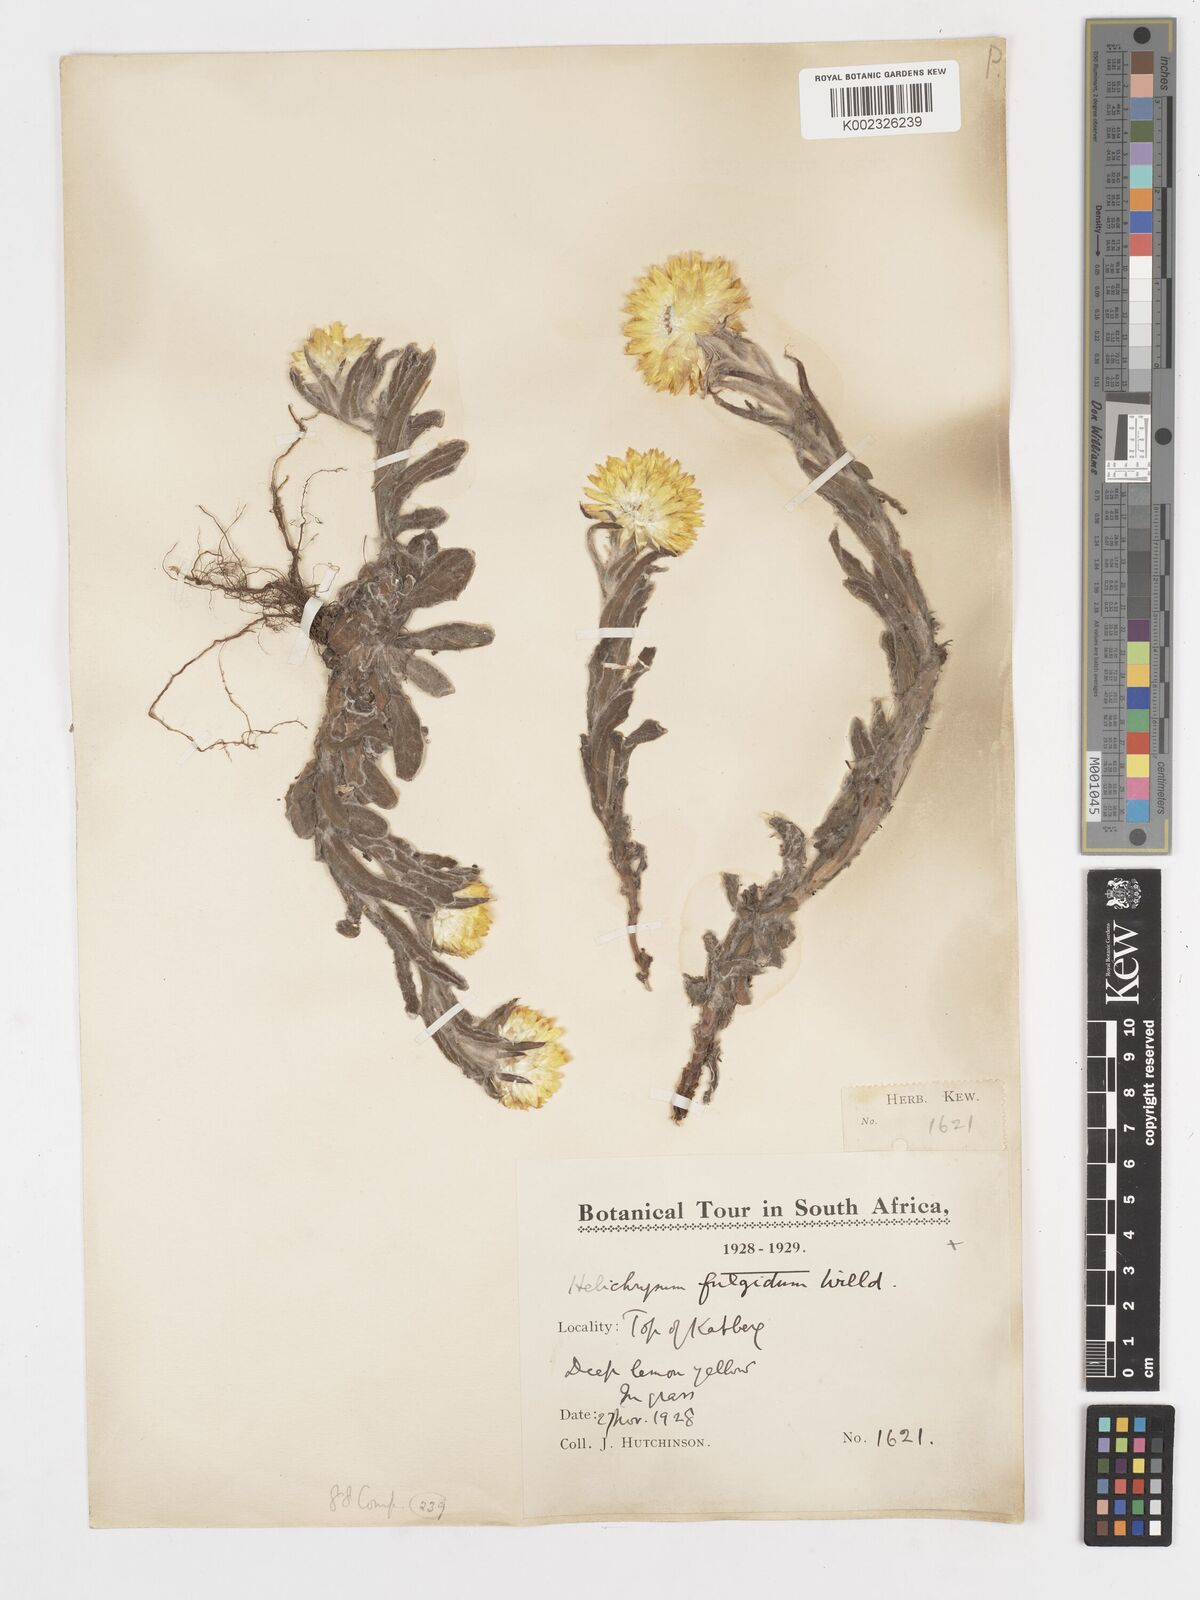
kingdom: Plantae
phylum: Tracheophyta
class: Magnoliopsida
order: Asterales
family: Asteraceae
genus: Helichrysum
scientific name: Helichrysum aureum
